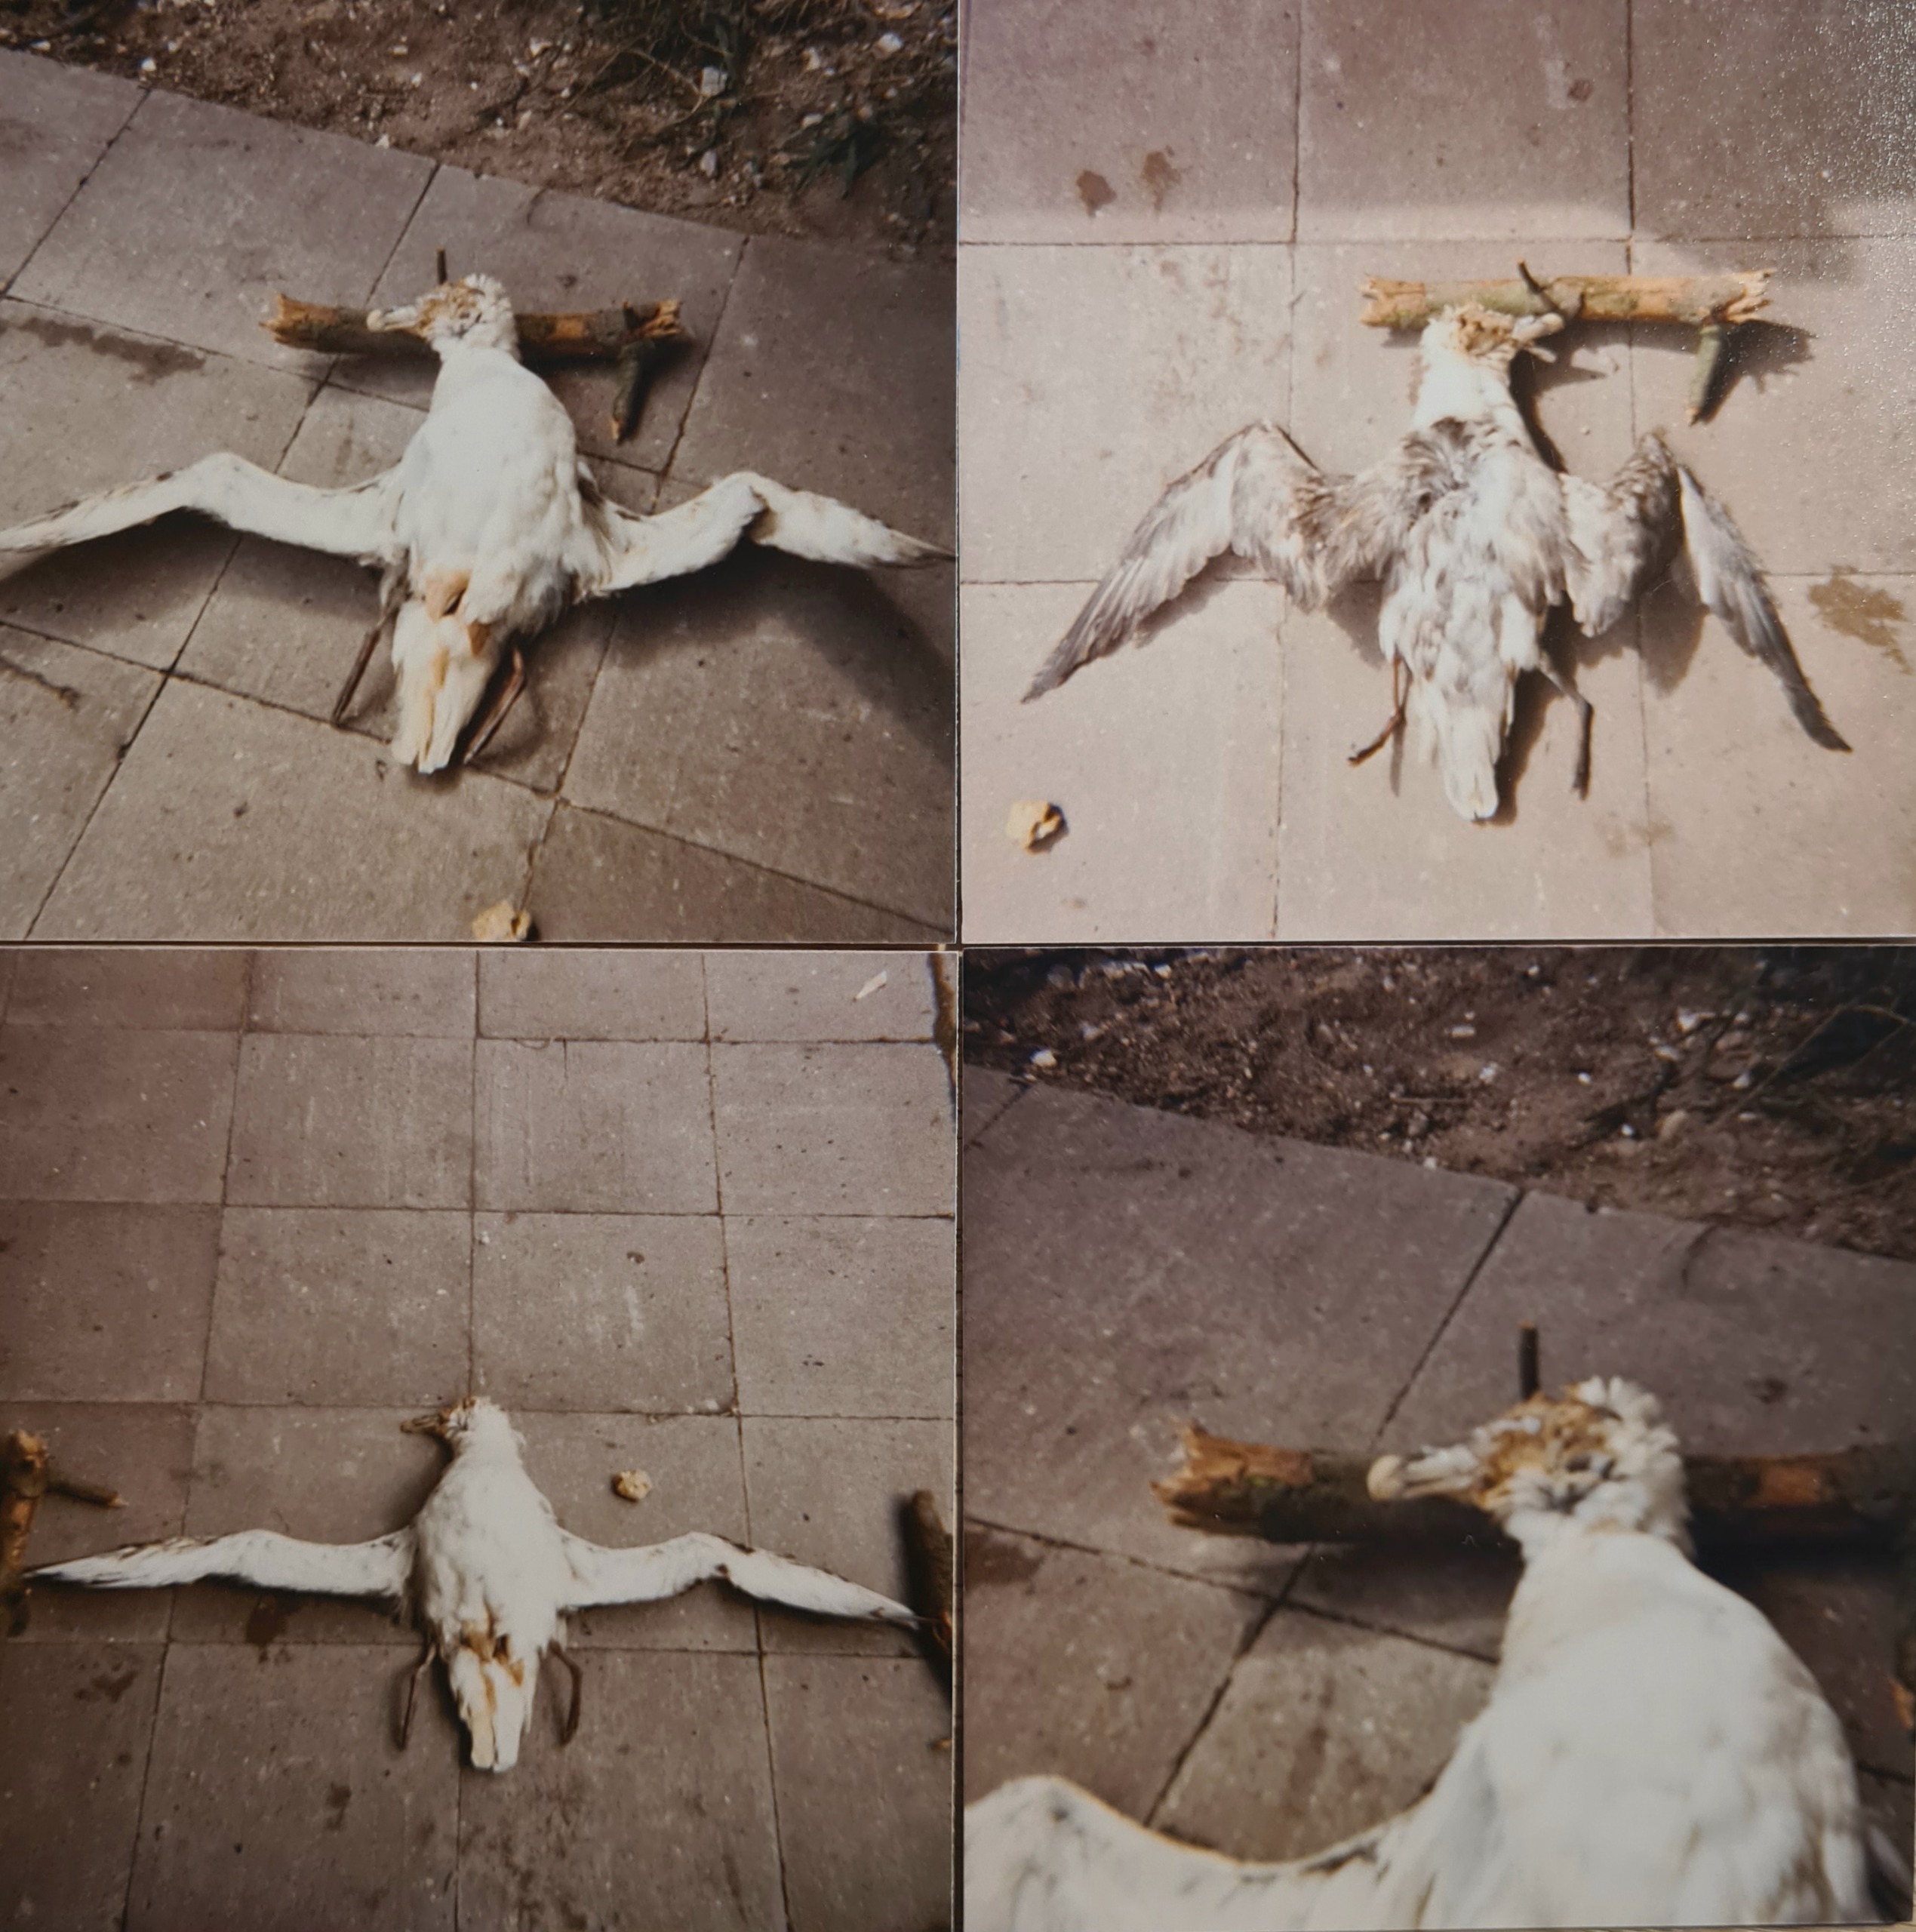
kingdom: Animalia
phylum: Chordata
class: Aves
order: Procellariiformes
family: Procellariidae
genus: Fulmarus
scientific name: Fulmarus glacialis
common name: Mallemuk
